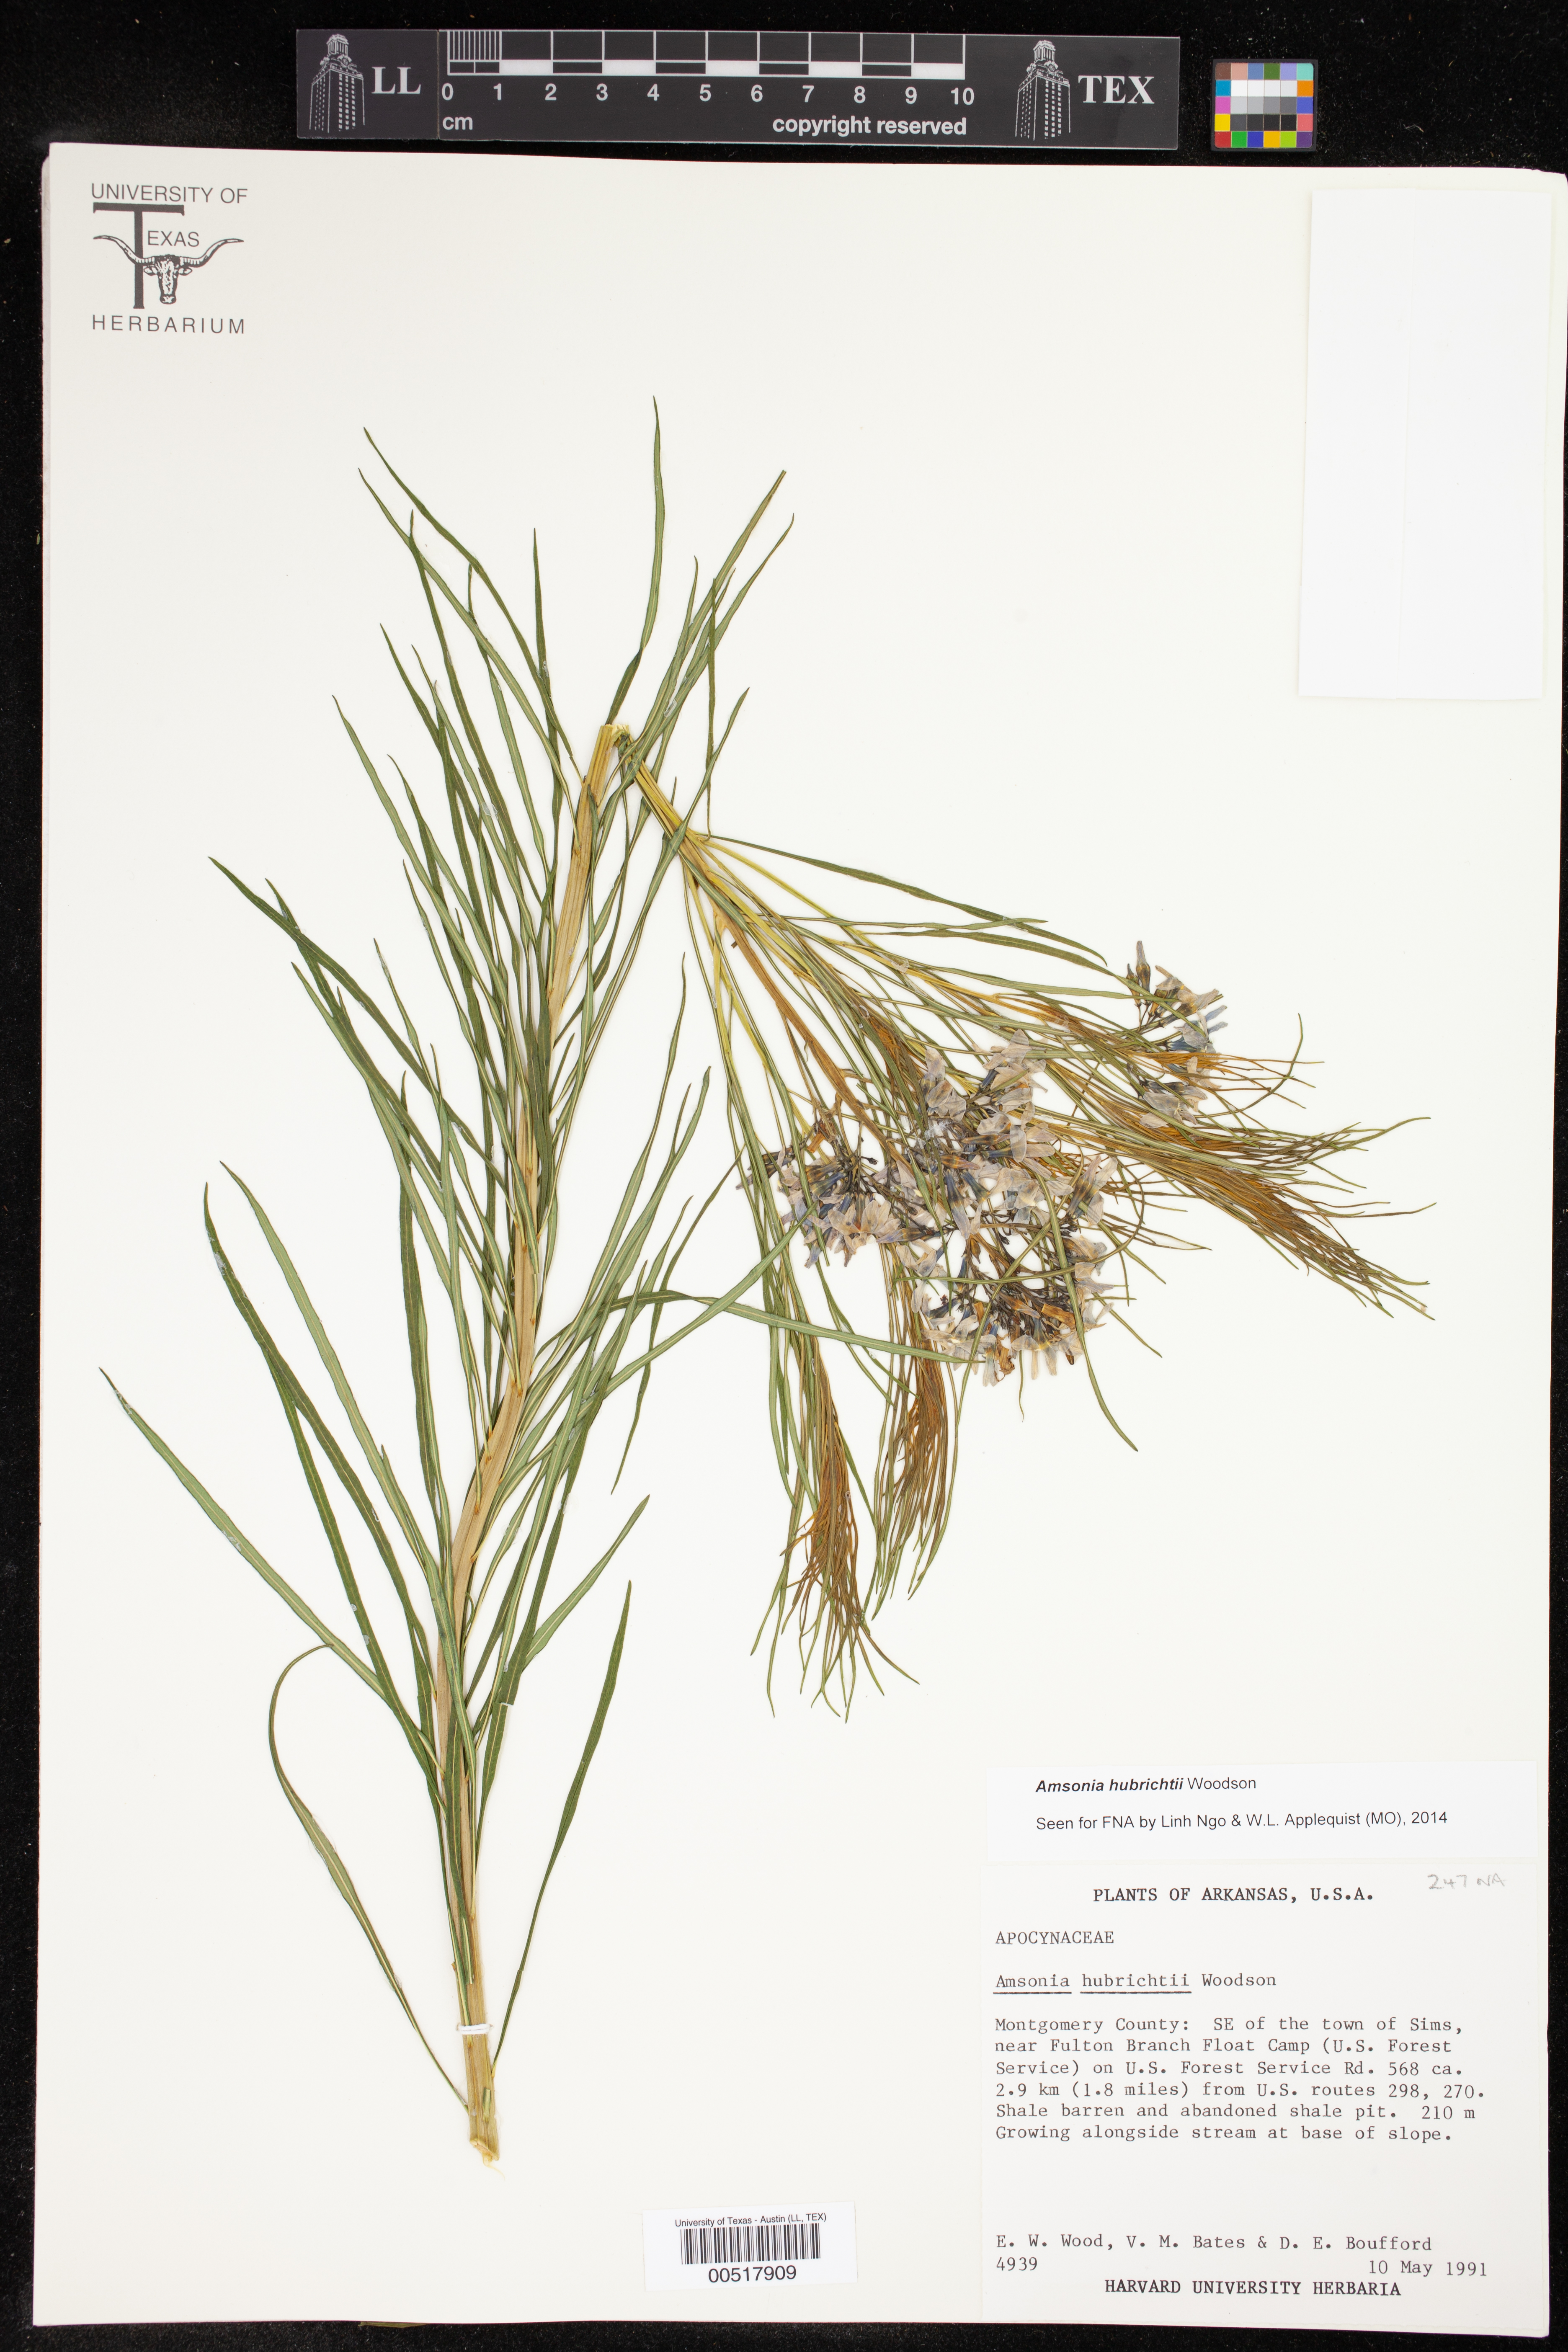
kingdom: Plantae
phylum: Tracheophyta
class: Magnoliopsida
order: Gentianales
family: Apocynaceae
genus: Amsonia
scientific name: Amsonia hubrichtii
